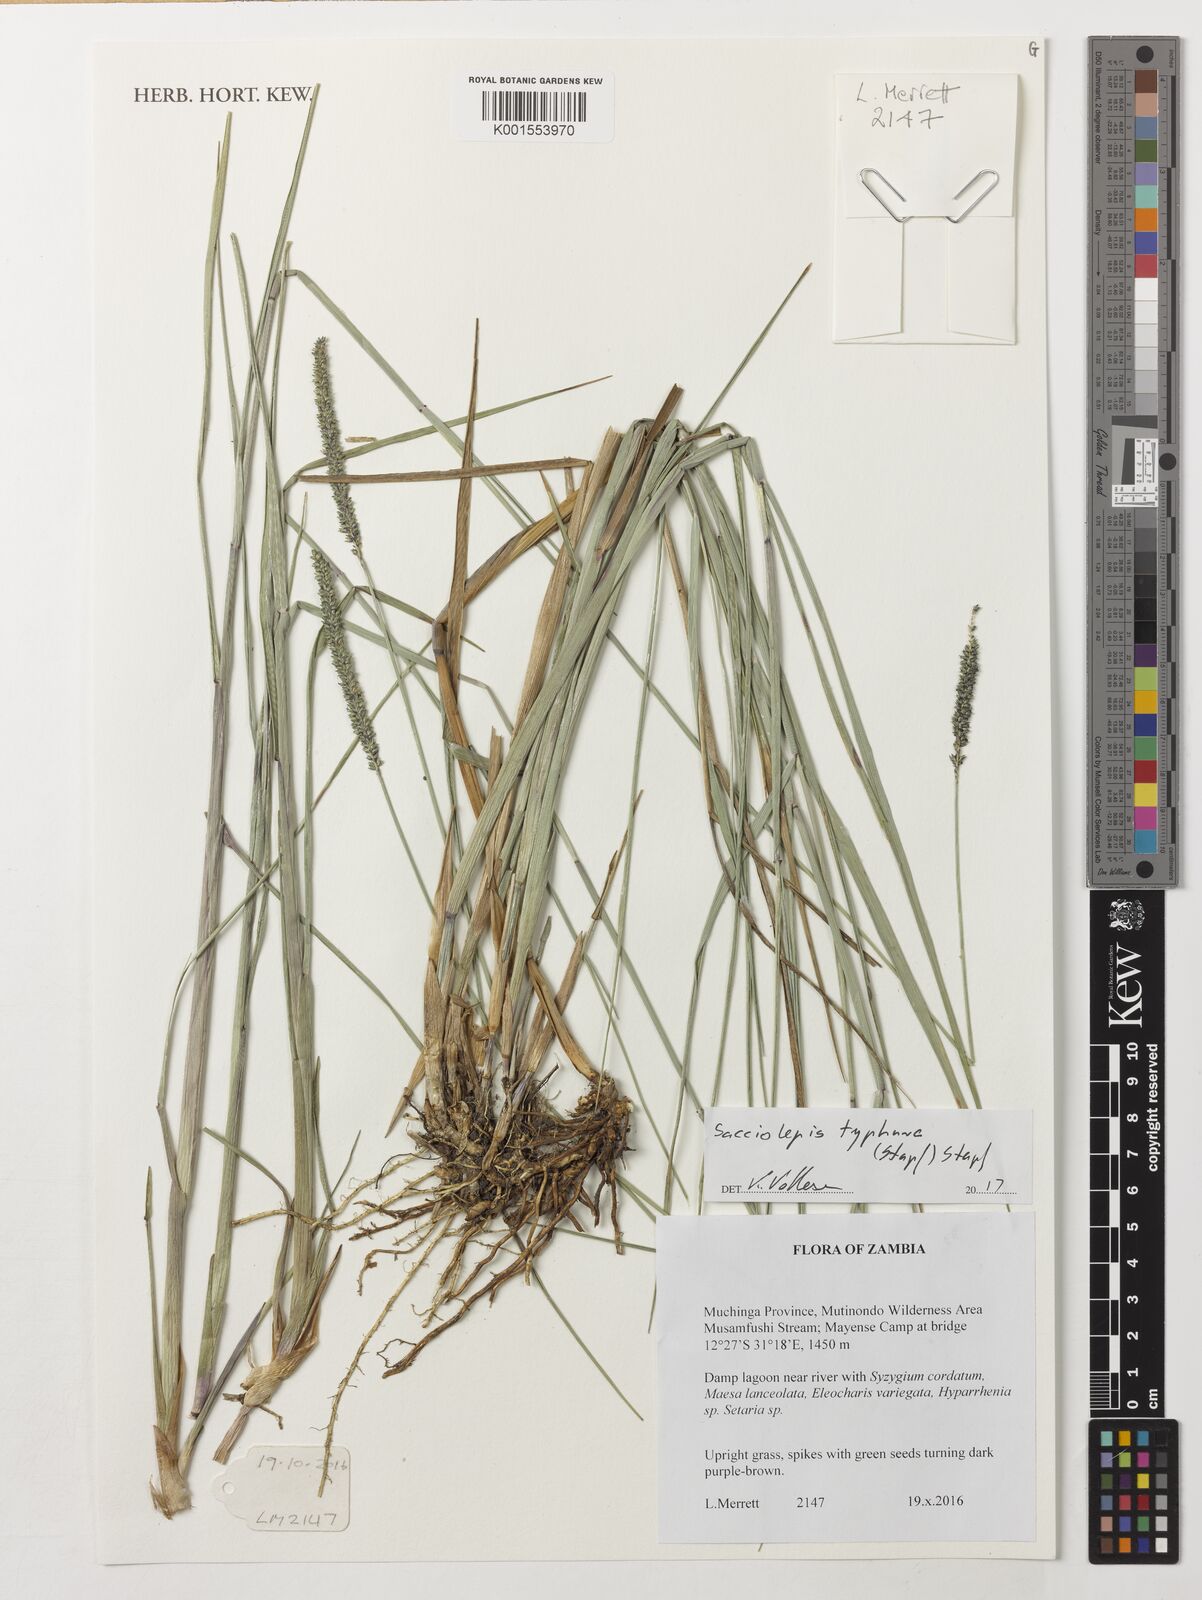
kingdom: Plantae
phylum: Tracheophyta
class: Liliopsida
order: Poales
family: Poaceae
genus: Sacciolepis
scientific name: Sacciolepis typhura
